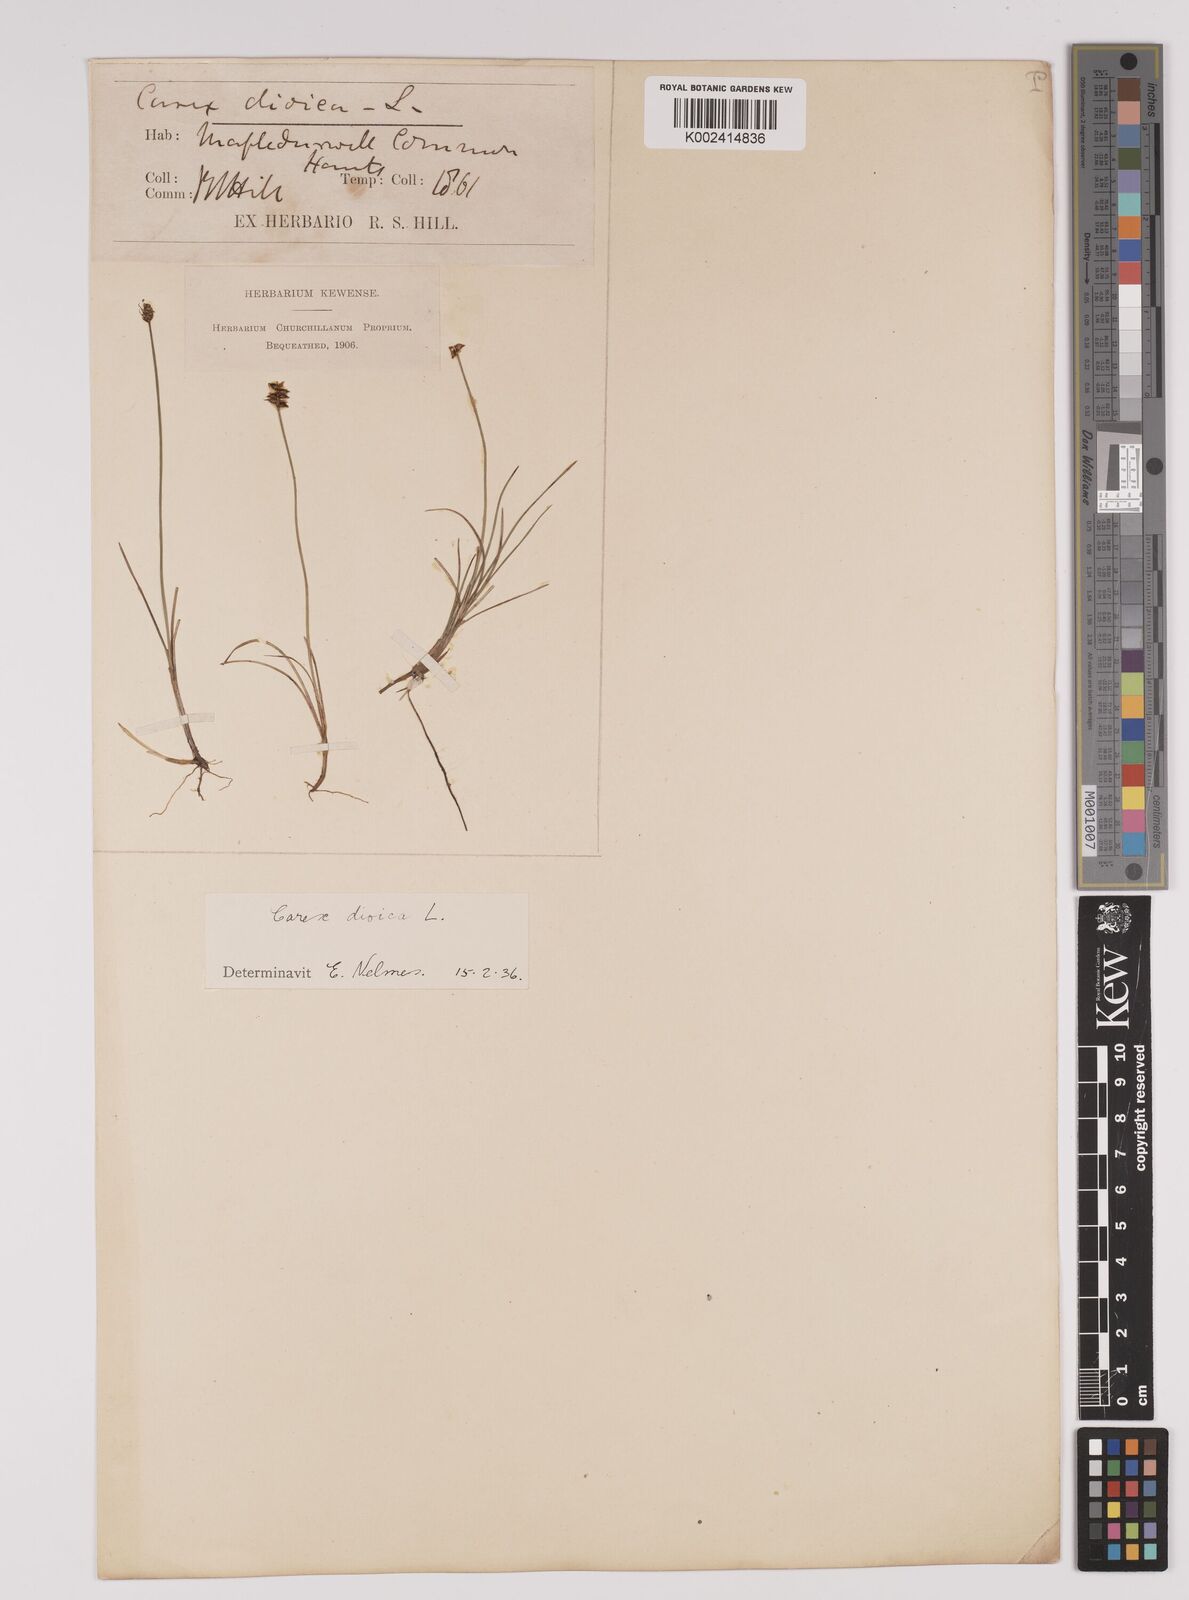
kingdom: Plantae
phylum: Tracheophyta
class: Liliopsida
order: Poales
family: Cyperaceae
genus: Carex
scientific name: Carex dioica
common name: Dioecious sedge
